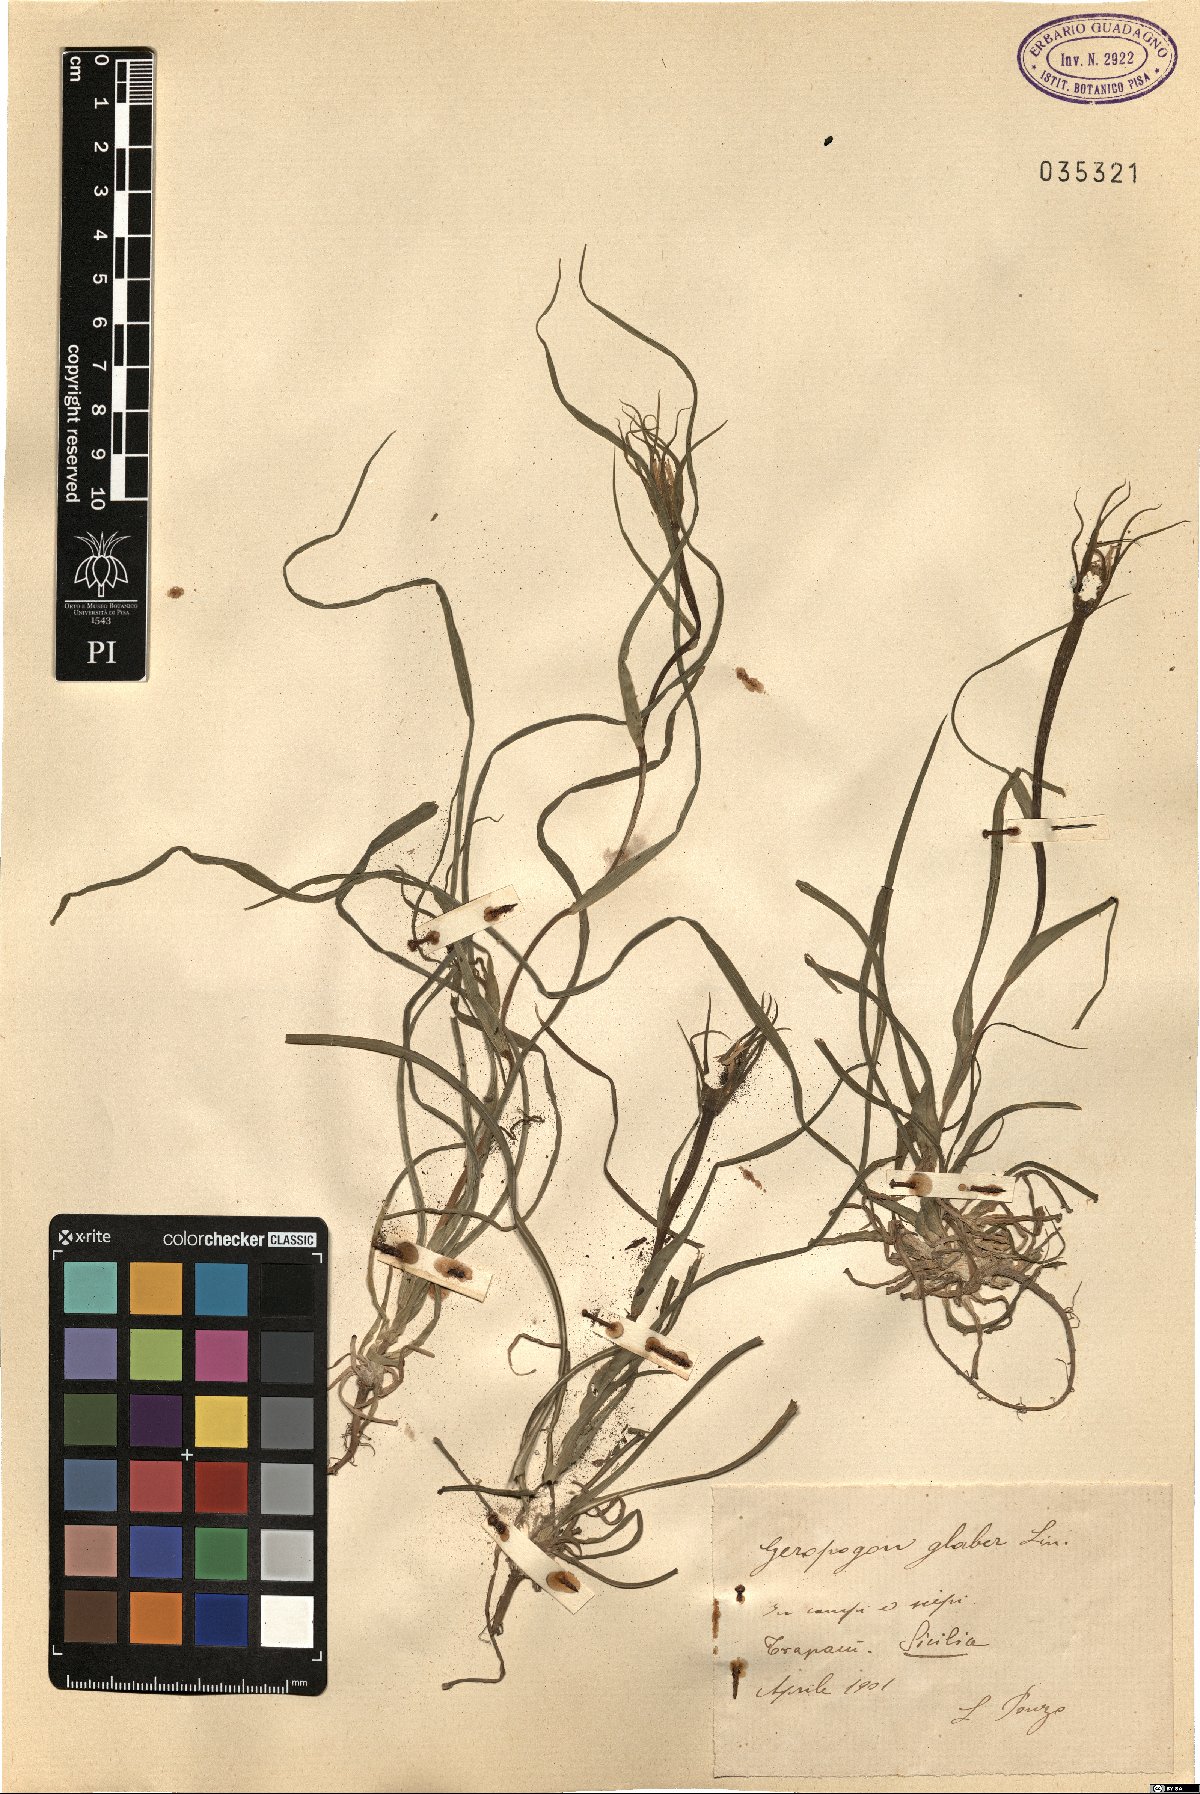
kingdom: Plantae
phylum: Tracheophyta
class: Magnoliopsida
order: Asterales
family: Asteraceae
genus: Geropogon
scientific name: Geropogon hybridus
